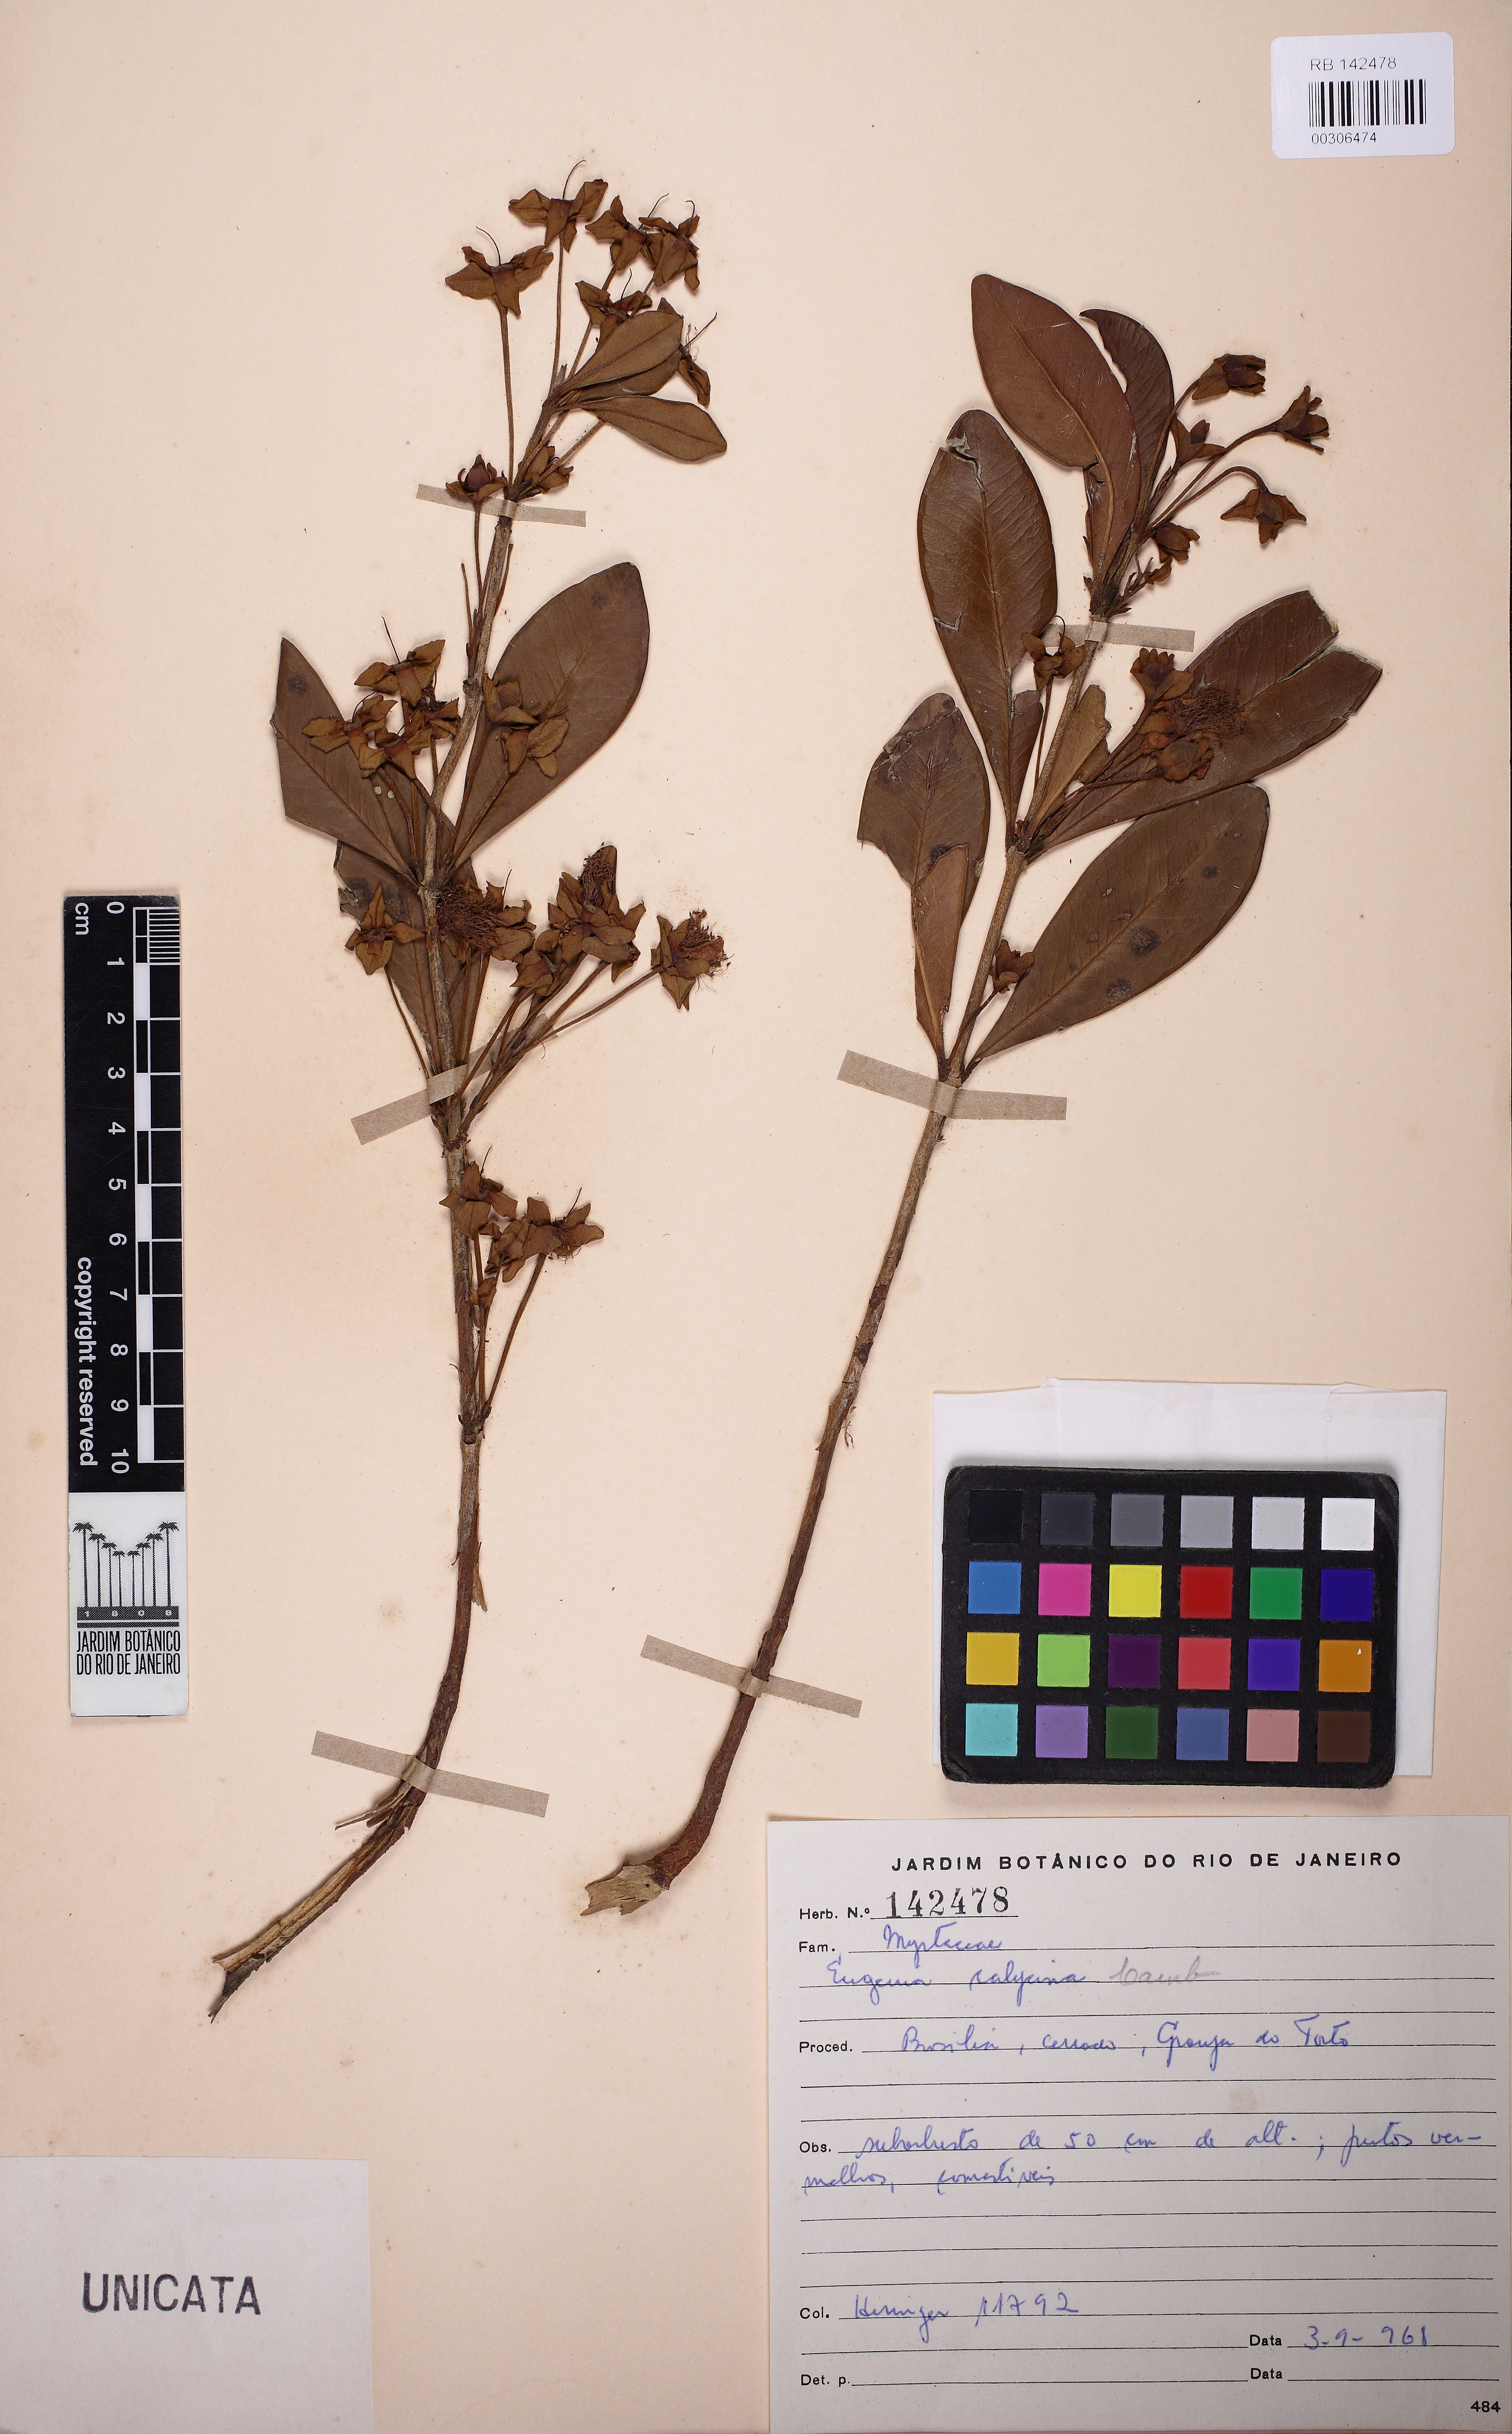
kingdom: Plantae
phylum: Tracheophyta
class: Magnoliopsida
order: Myrtales
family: Myrtaceae
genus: Eugenia
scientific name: Eugenia calycina
